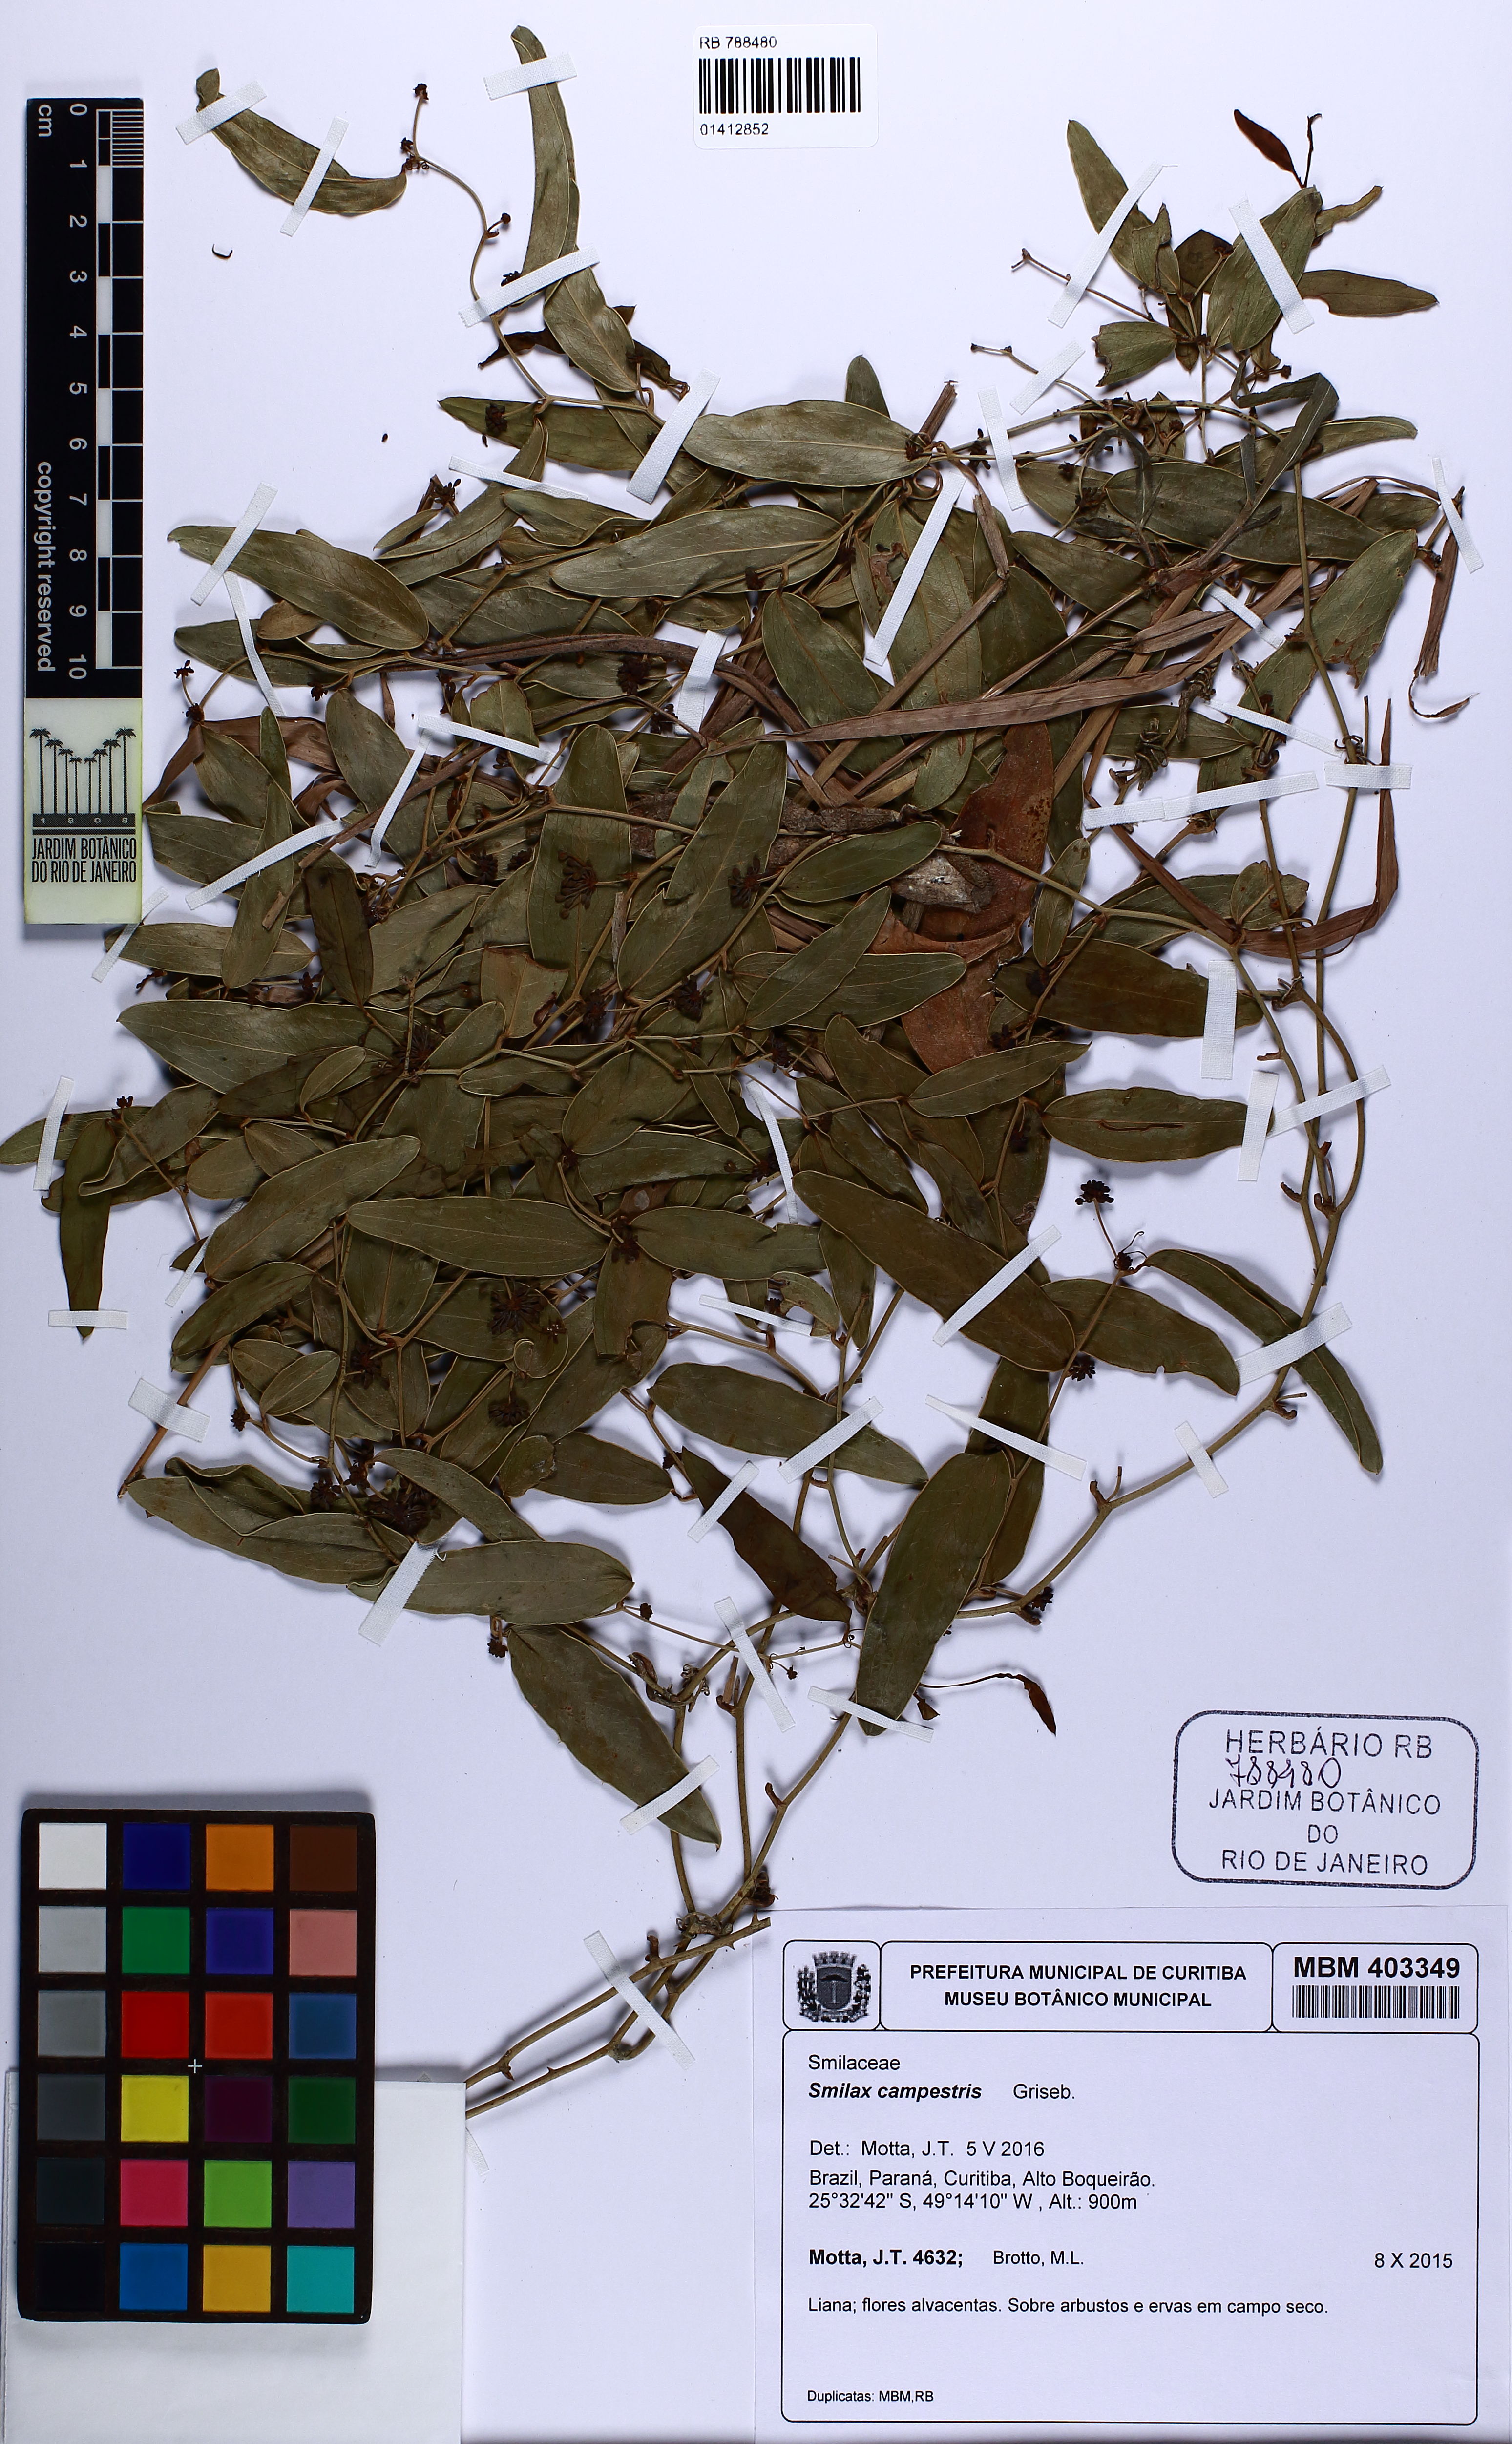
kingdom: Plantae
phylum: Tracheophyta
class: Liliopsida
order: Liliales
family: Smilacaceae
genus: Smilax
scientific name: Smilax campestris
